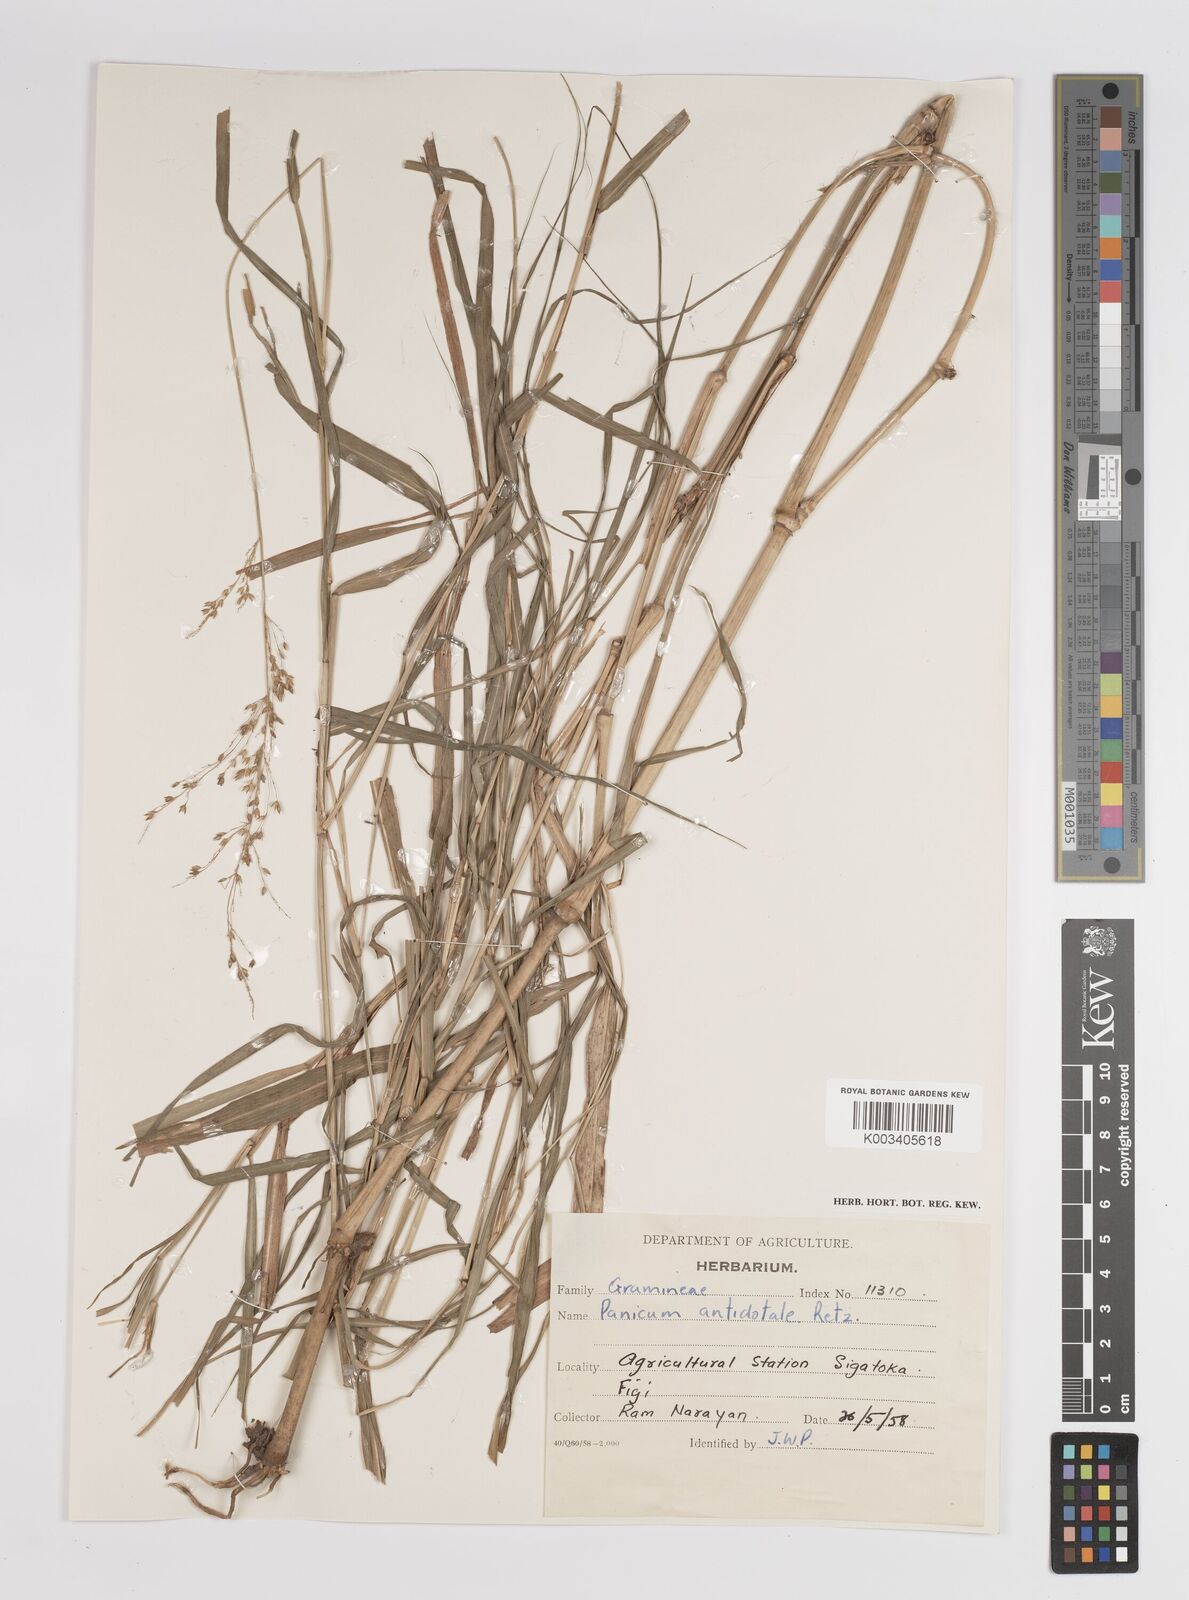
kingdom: Plantae
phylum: Tracheophyta
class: Liliopsida
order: Poales
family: Poaceae
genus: Panicum
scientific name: Panicum antidotale
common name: Blue panicum
